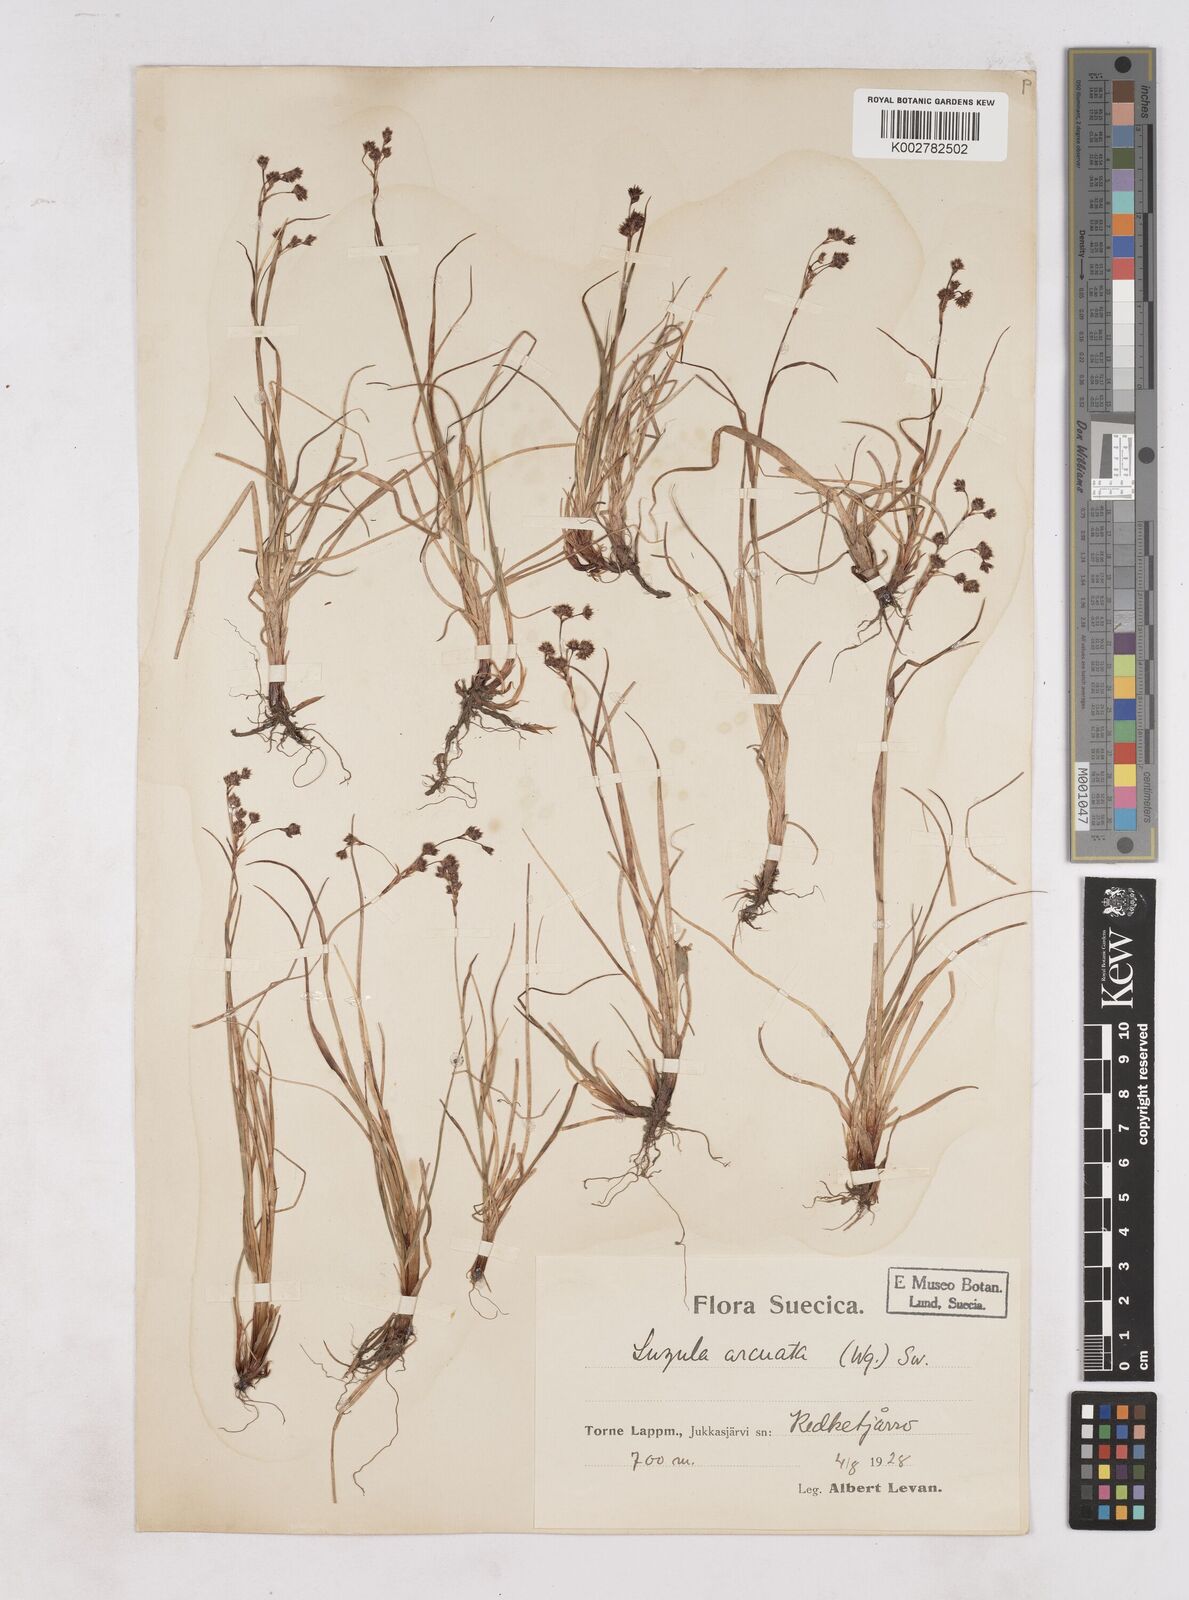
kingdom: Plantae
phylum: Tracheophyta
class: Liliopsida
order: Poales
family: Juncaceae
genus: Luzula
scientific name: Luzula arcuata
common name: Curved wood-rush
